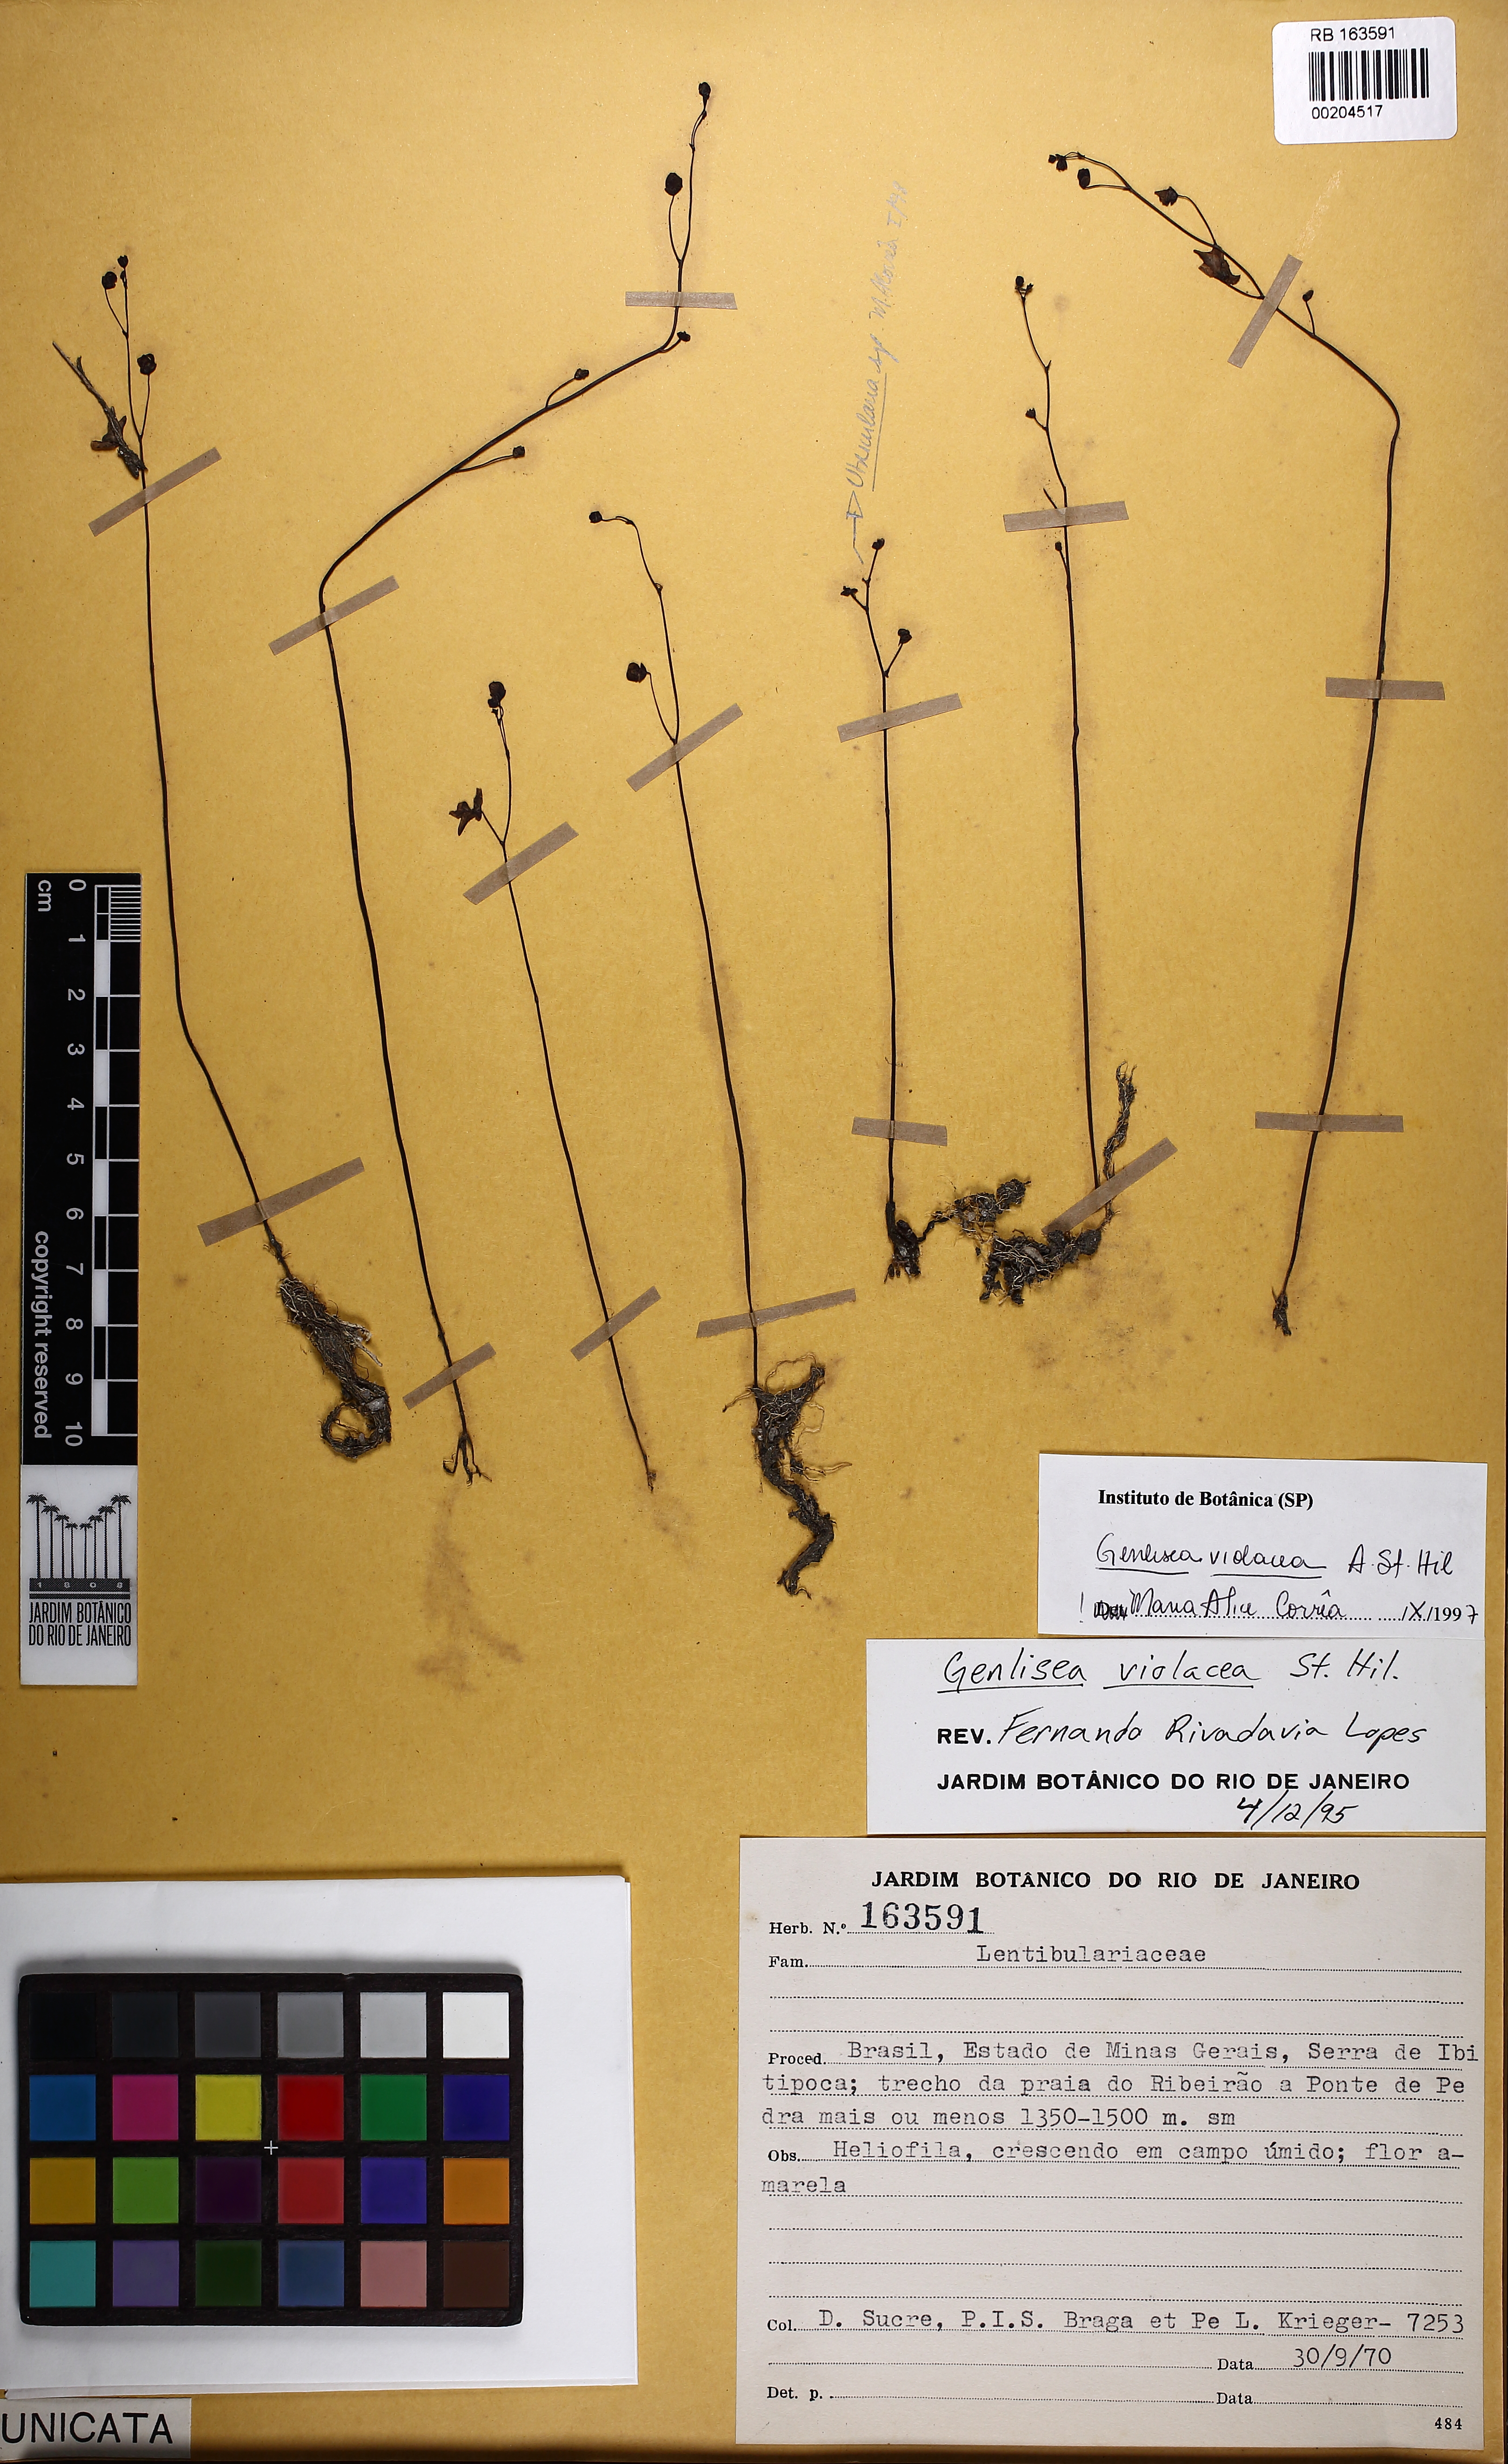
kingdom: Plantae
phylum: Tracheophyta
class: Magnoliopsida
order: Lamiales
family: Lentibulariaceae
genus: Genlisea
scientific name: Genlisea violacea
